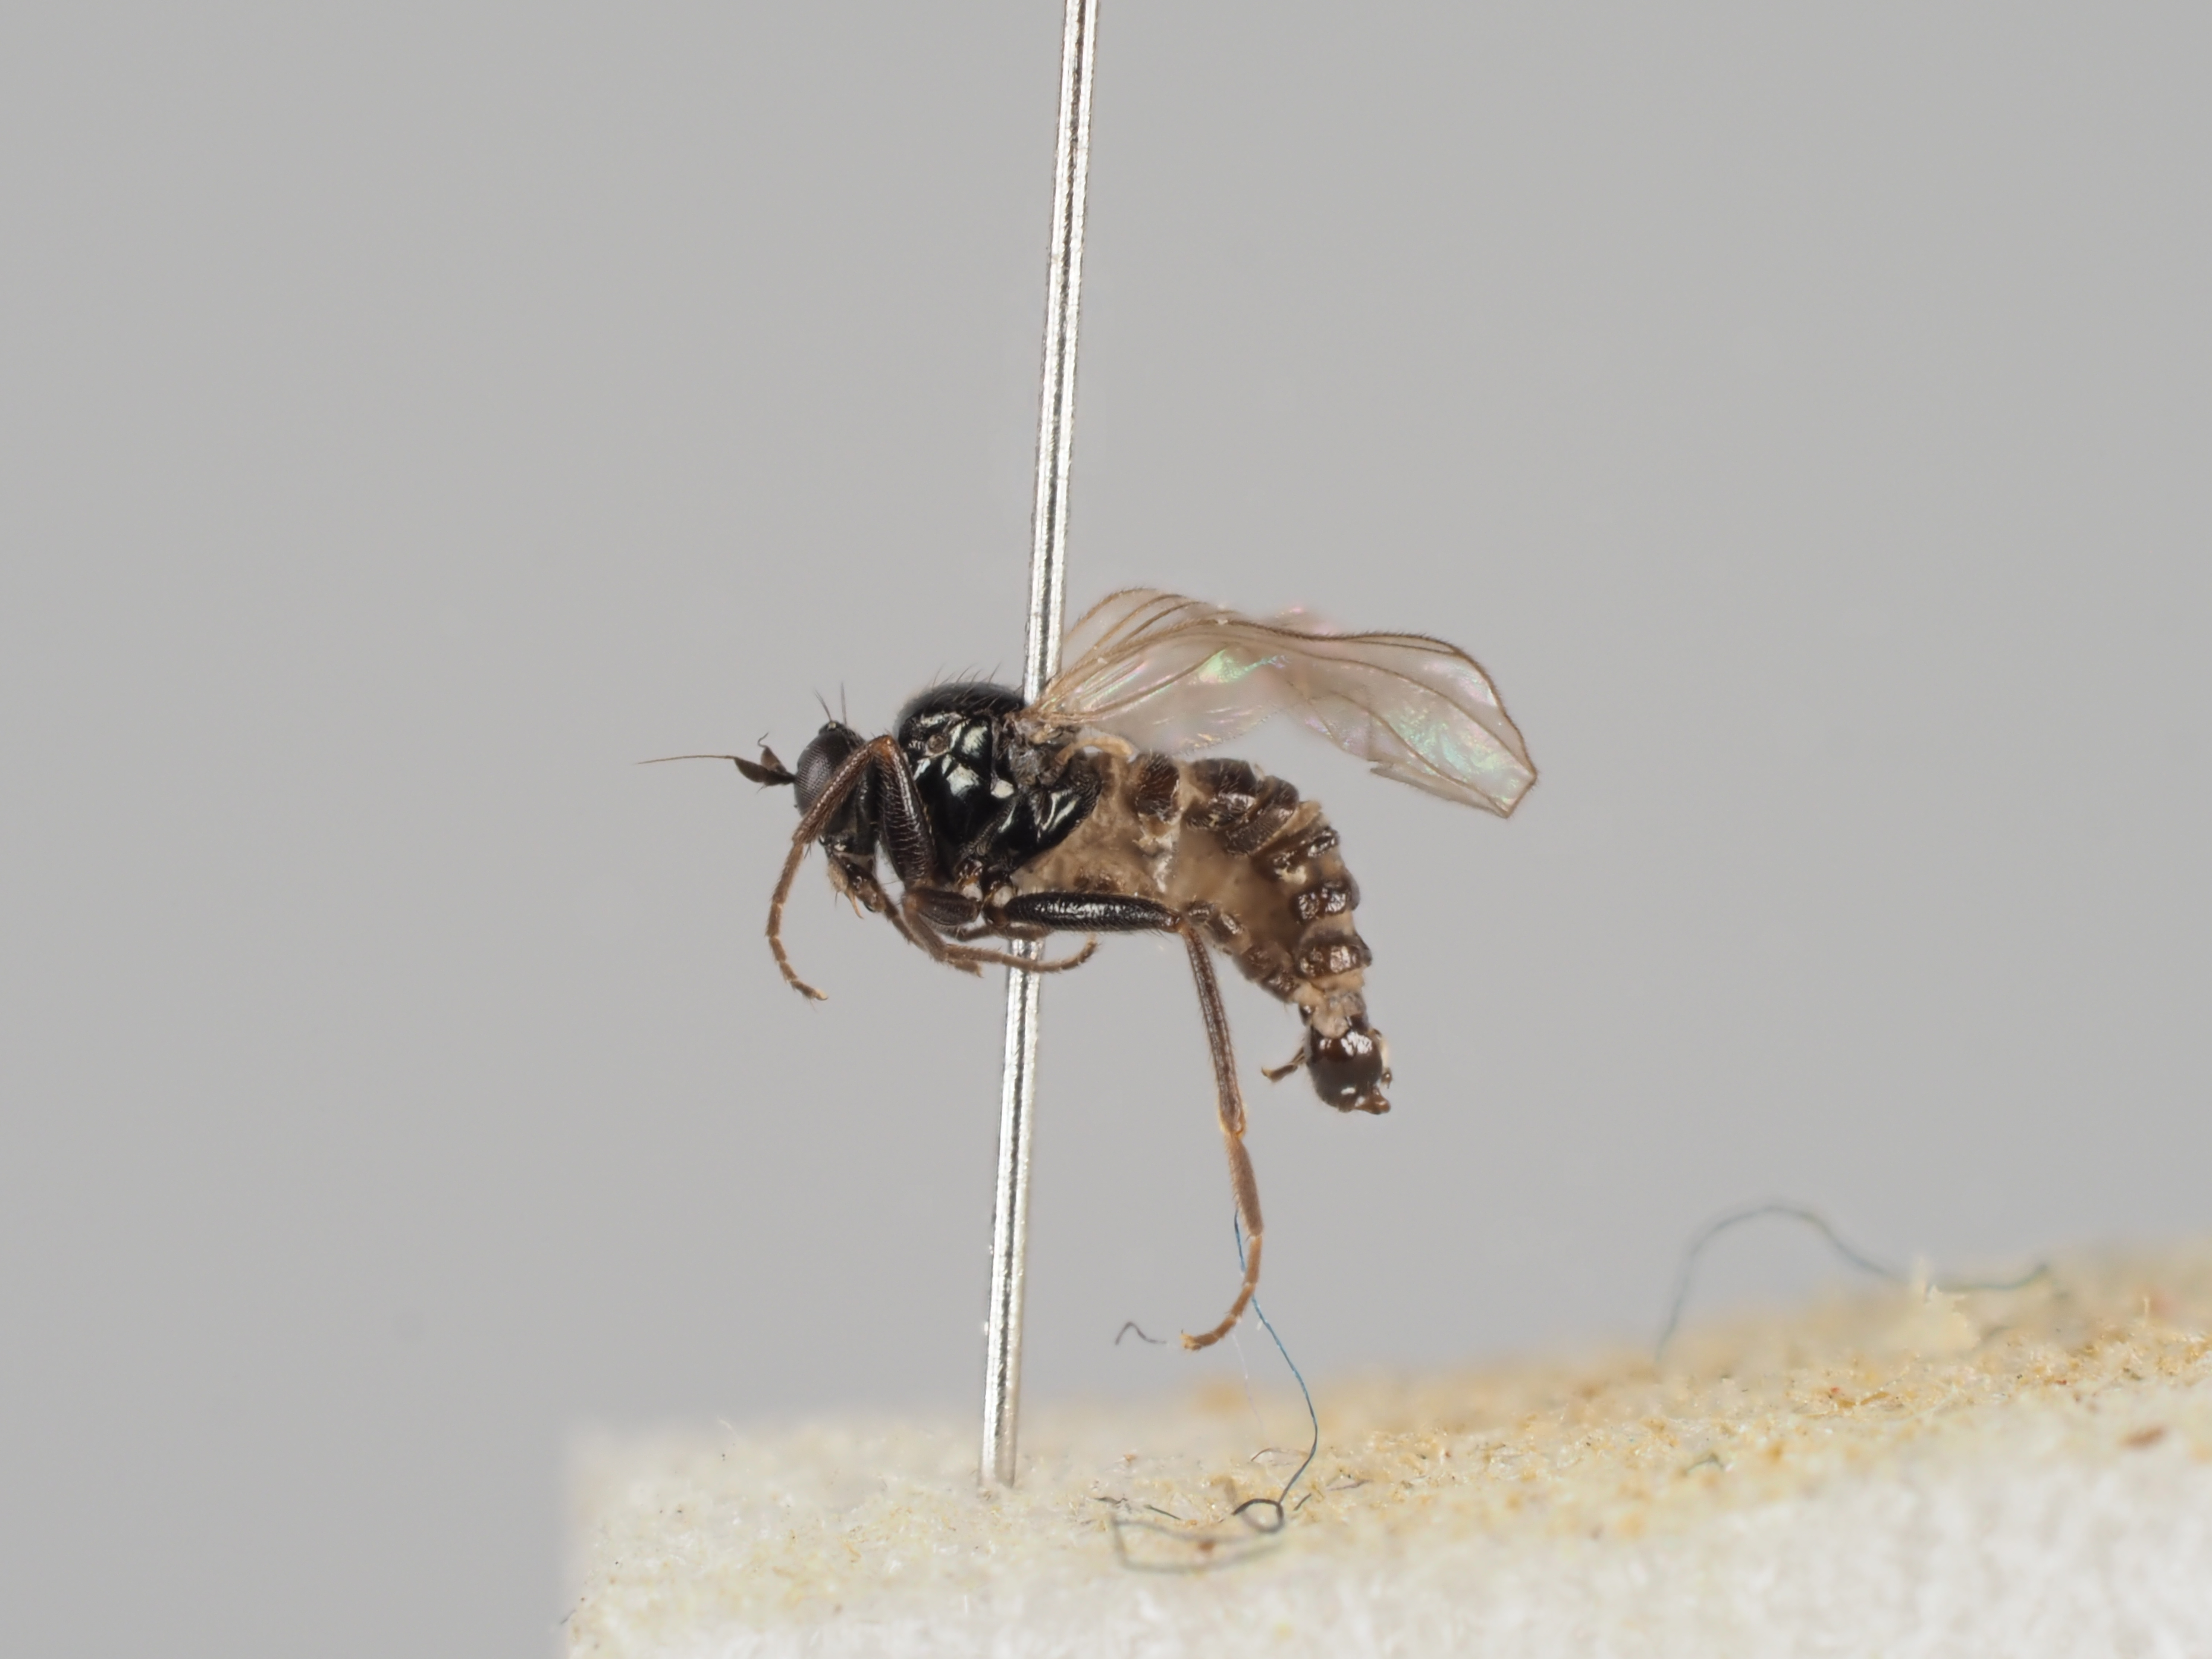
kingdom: Animalia
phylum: Arthropoda
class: Insecta
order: Diptera
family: Hybotidae
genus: Crossopalpus
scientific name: Crossopalpus curvipes
